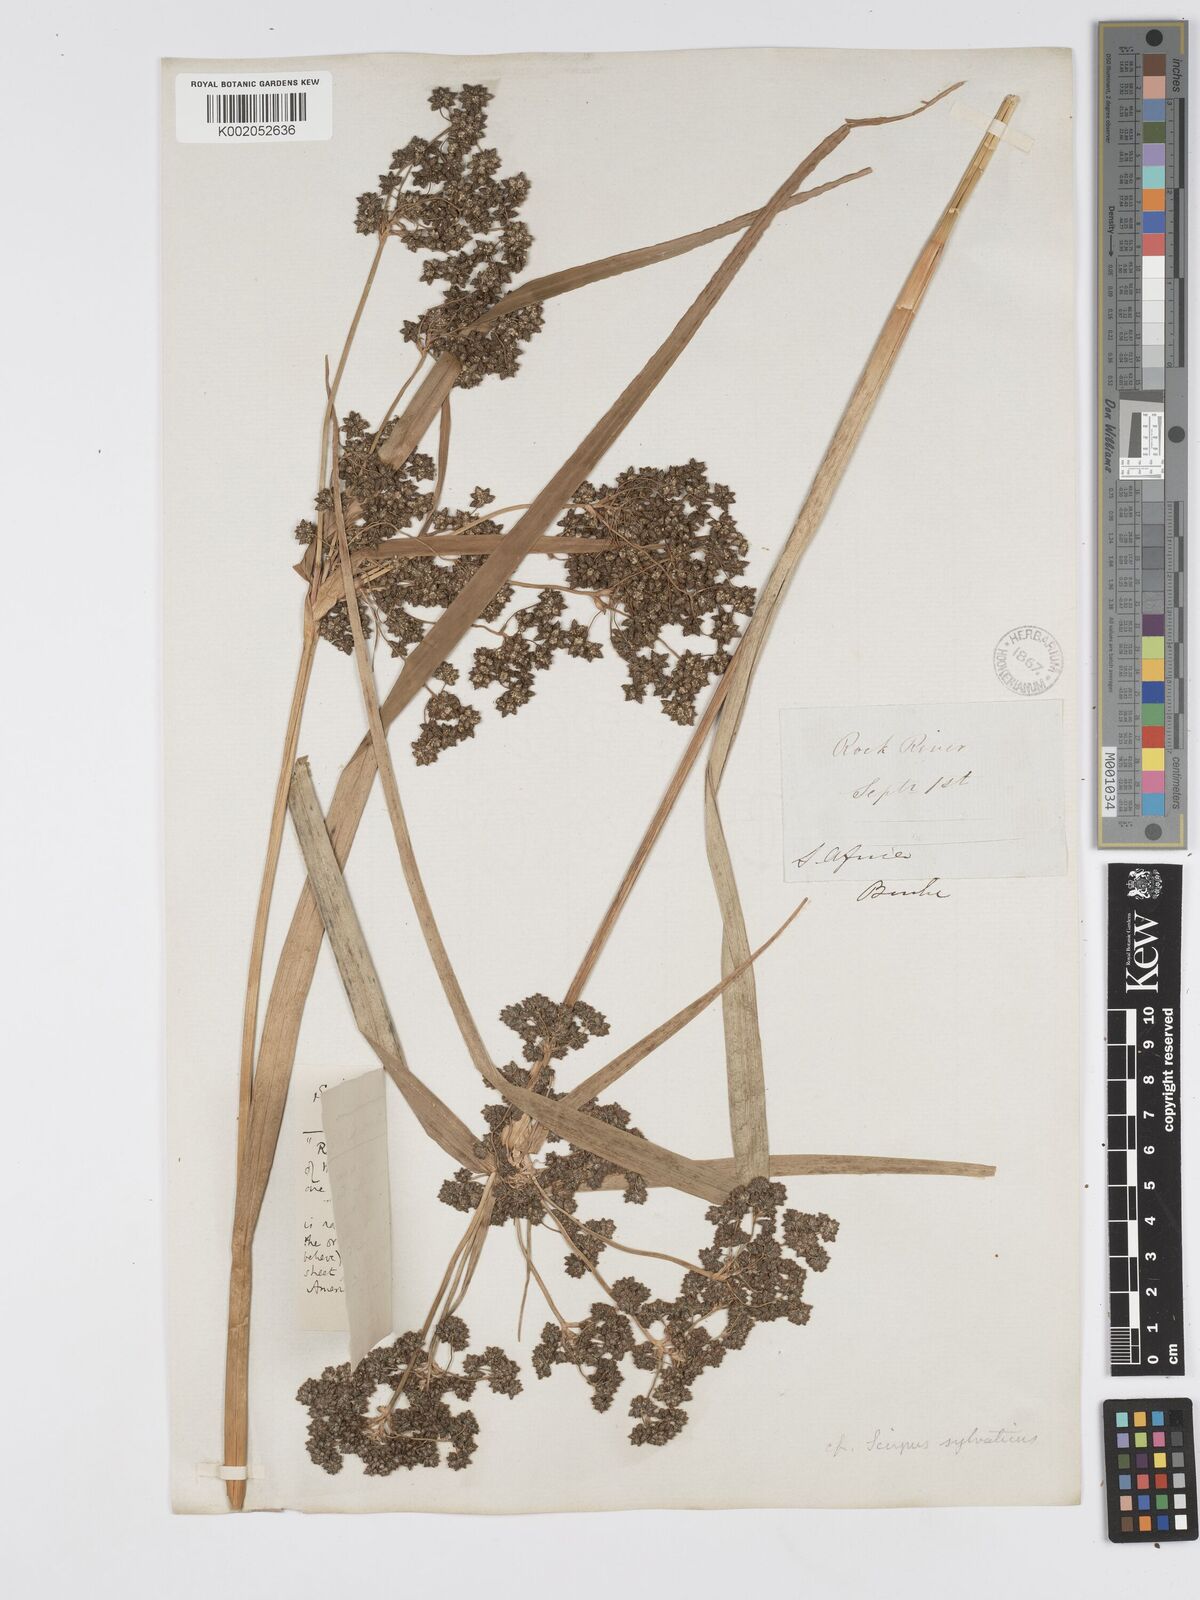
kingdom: Plantae
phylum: Tracheophyta
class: Liliopsida
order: Poales
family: Cyperaceae
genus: Scirpus
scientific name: Scirpus atrovirens
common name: Black bulrush
